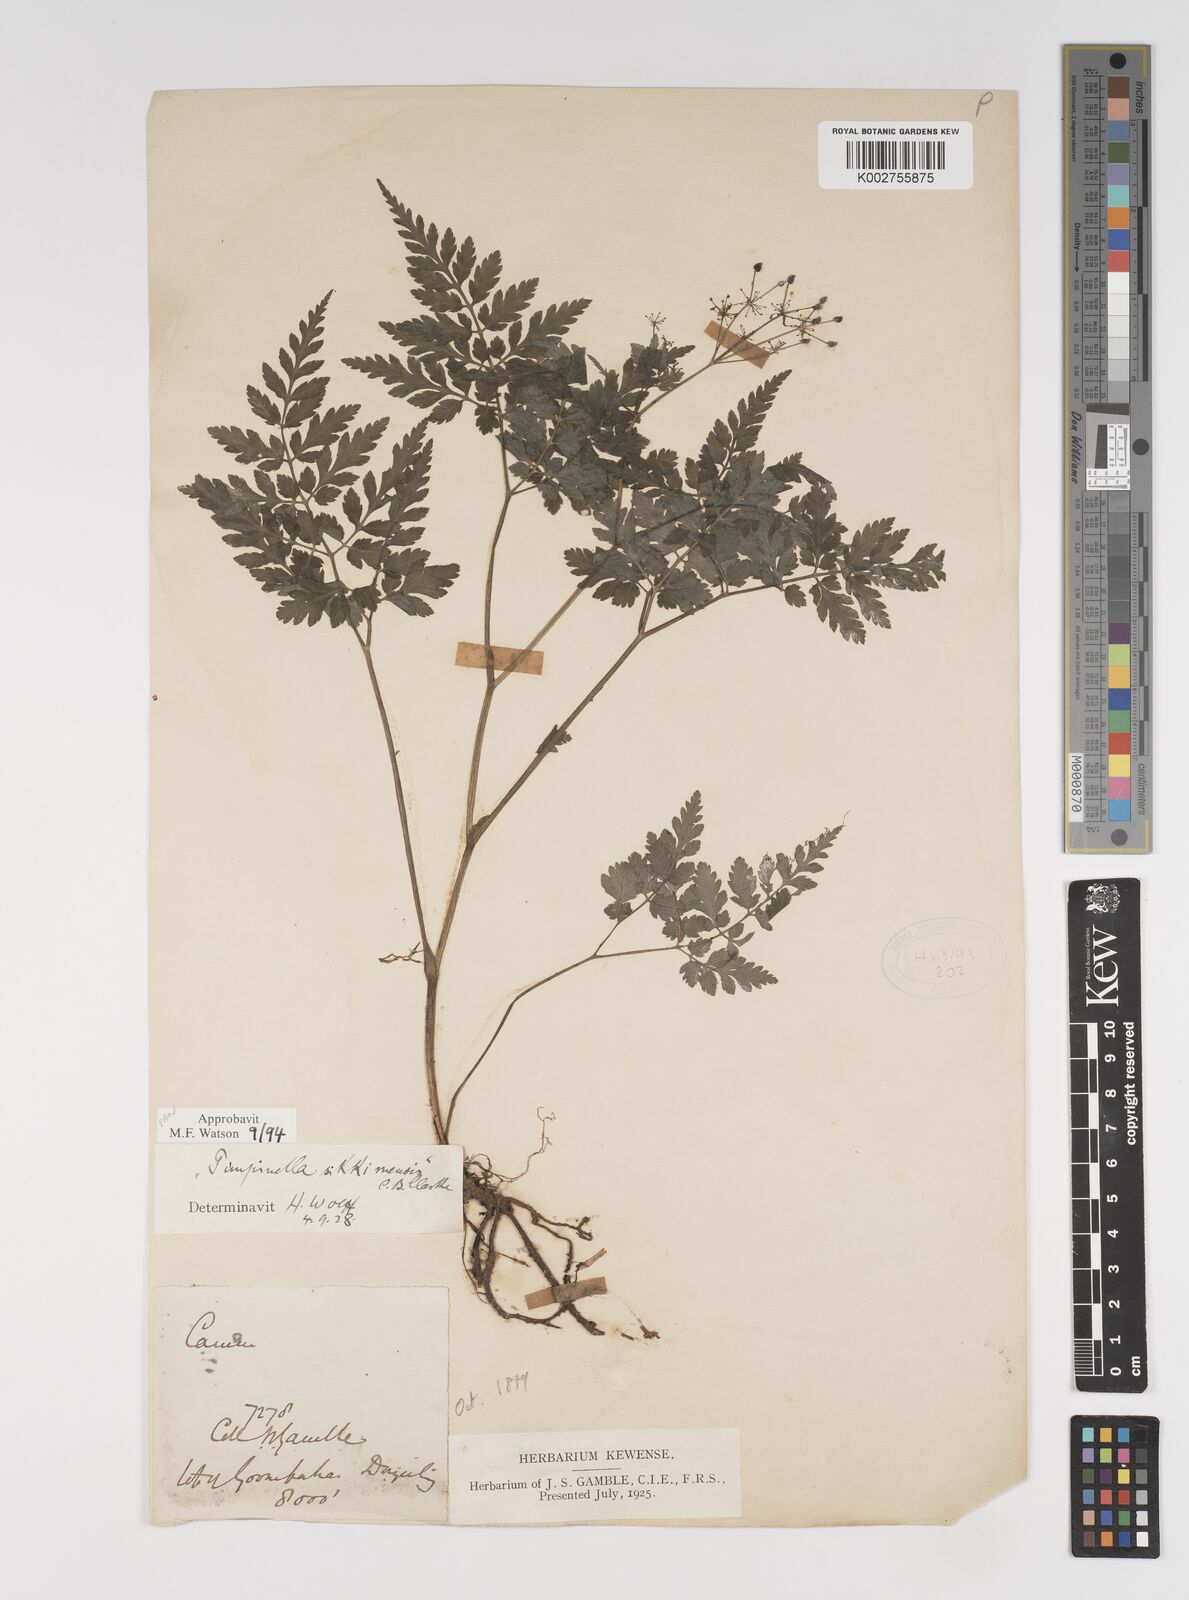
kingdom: Plantae
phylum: Tracheophyta
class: Magnoliopsida
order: Apiales
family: Apiaceae
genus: Pimpinella
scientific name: Pimpinella sikkimensis
